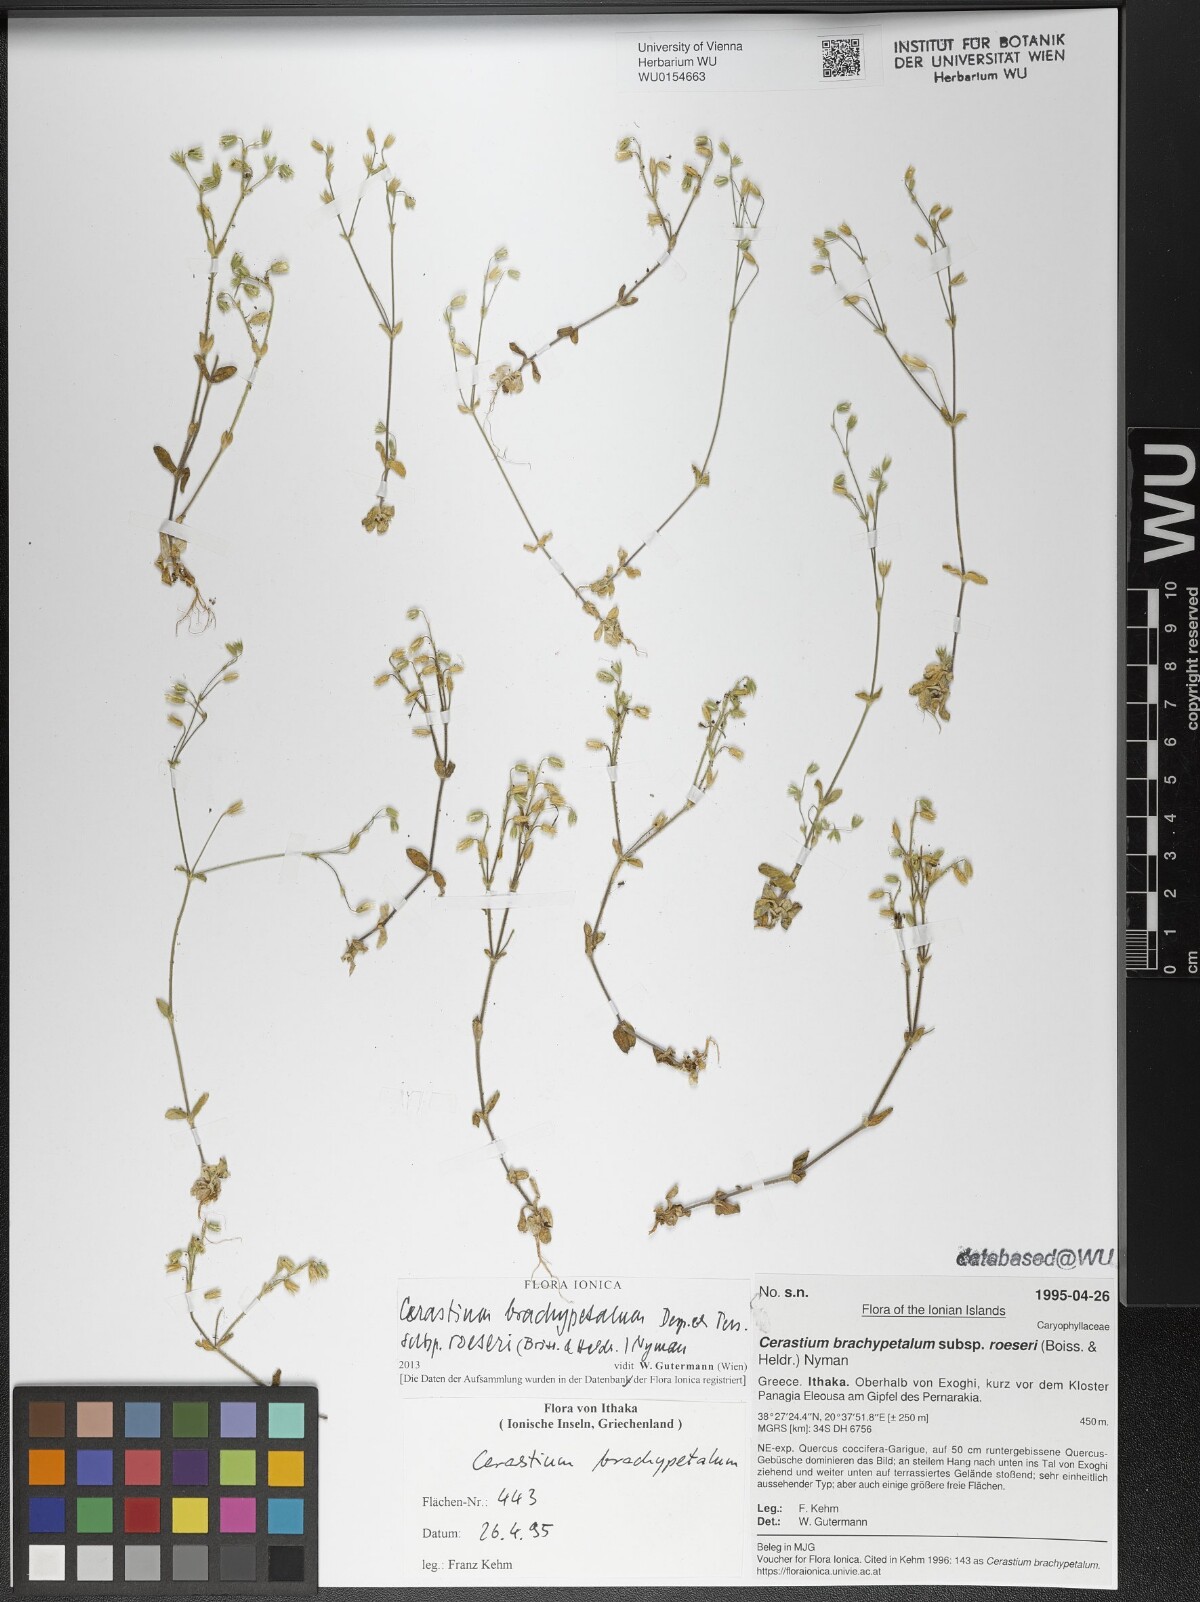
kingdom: Plantae
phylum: Tracheophyta
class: Magnoliopsida
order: Caryophyllales
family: Caryophyllaceae
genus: Cerastium
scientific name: Cerastium brachypetalum
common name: Grey mouse-ear
